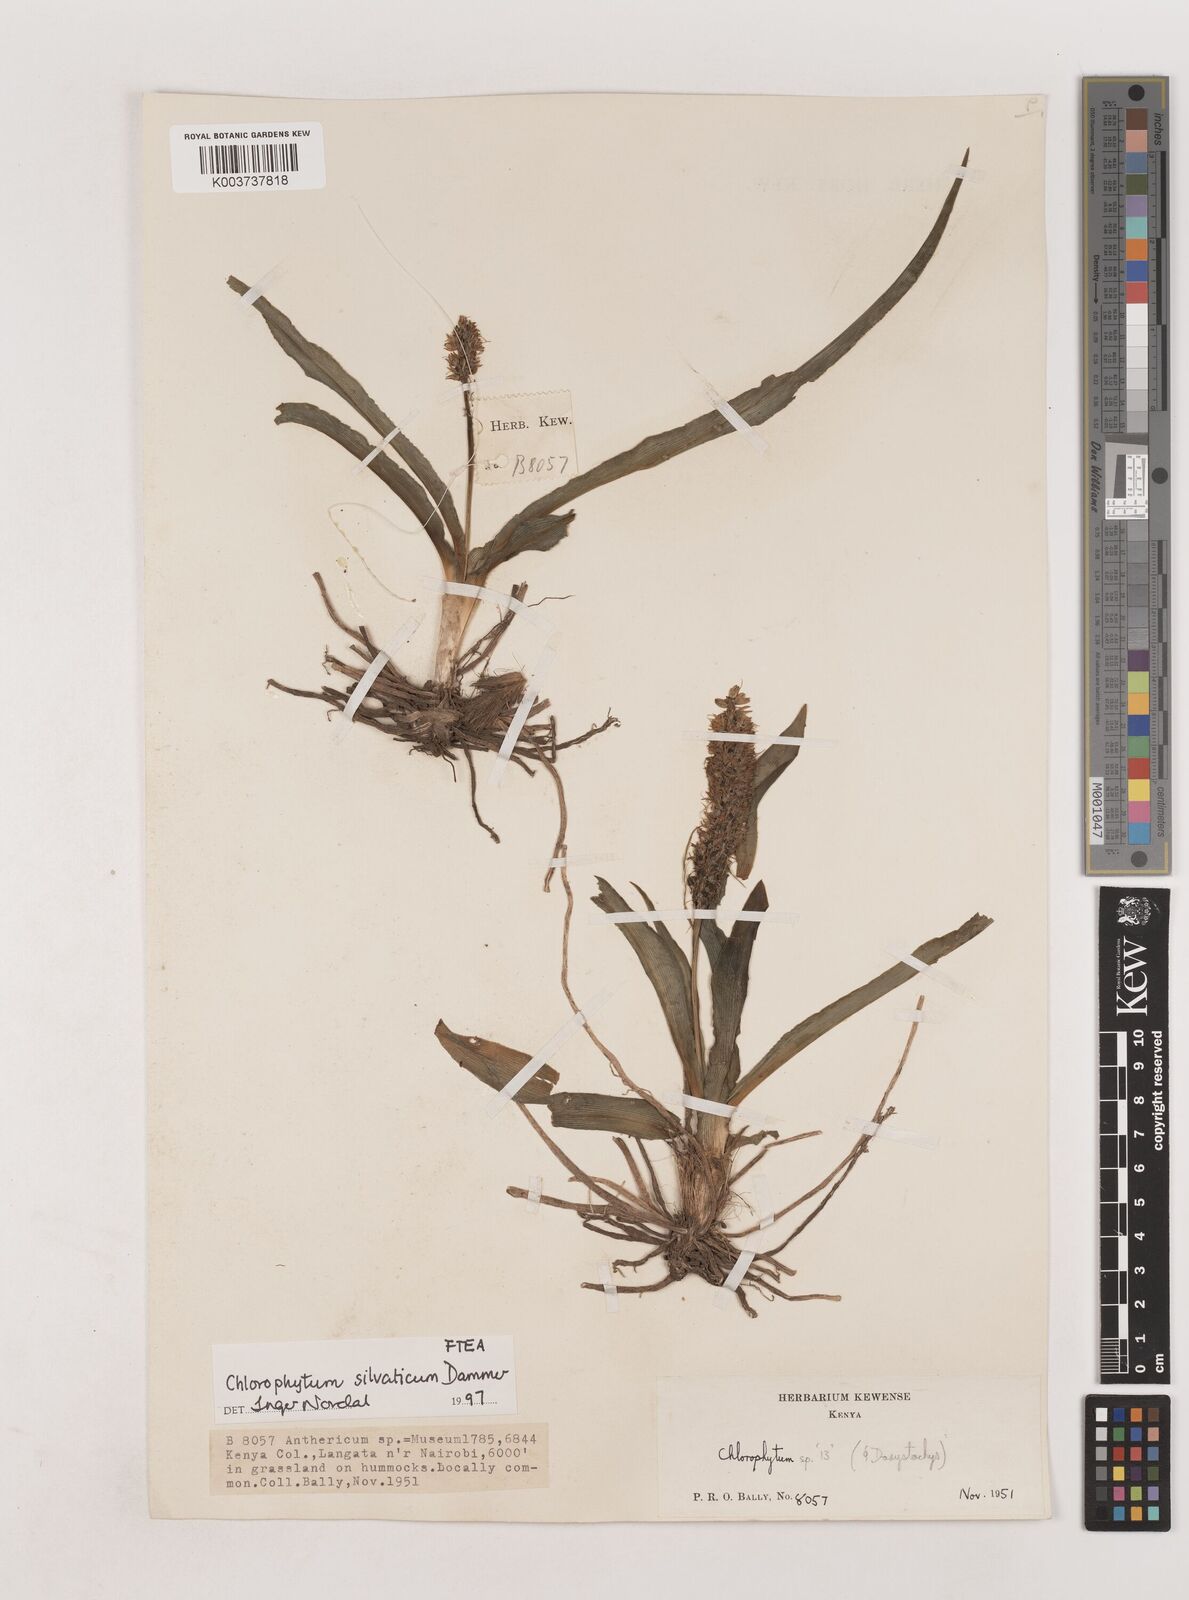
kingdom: Plantae
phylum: Tracheophyta
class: Liliopsida
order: Asparagales
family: Asparagaceae
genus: Chlorophytum
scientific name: Chlorophytum africanum
